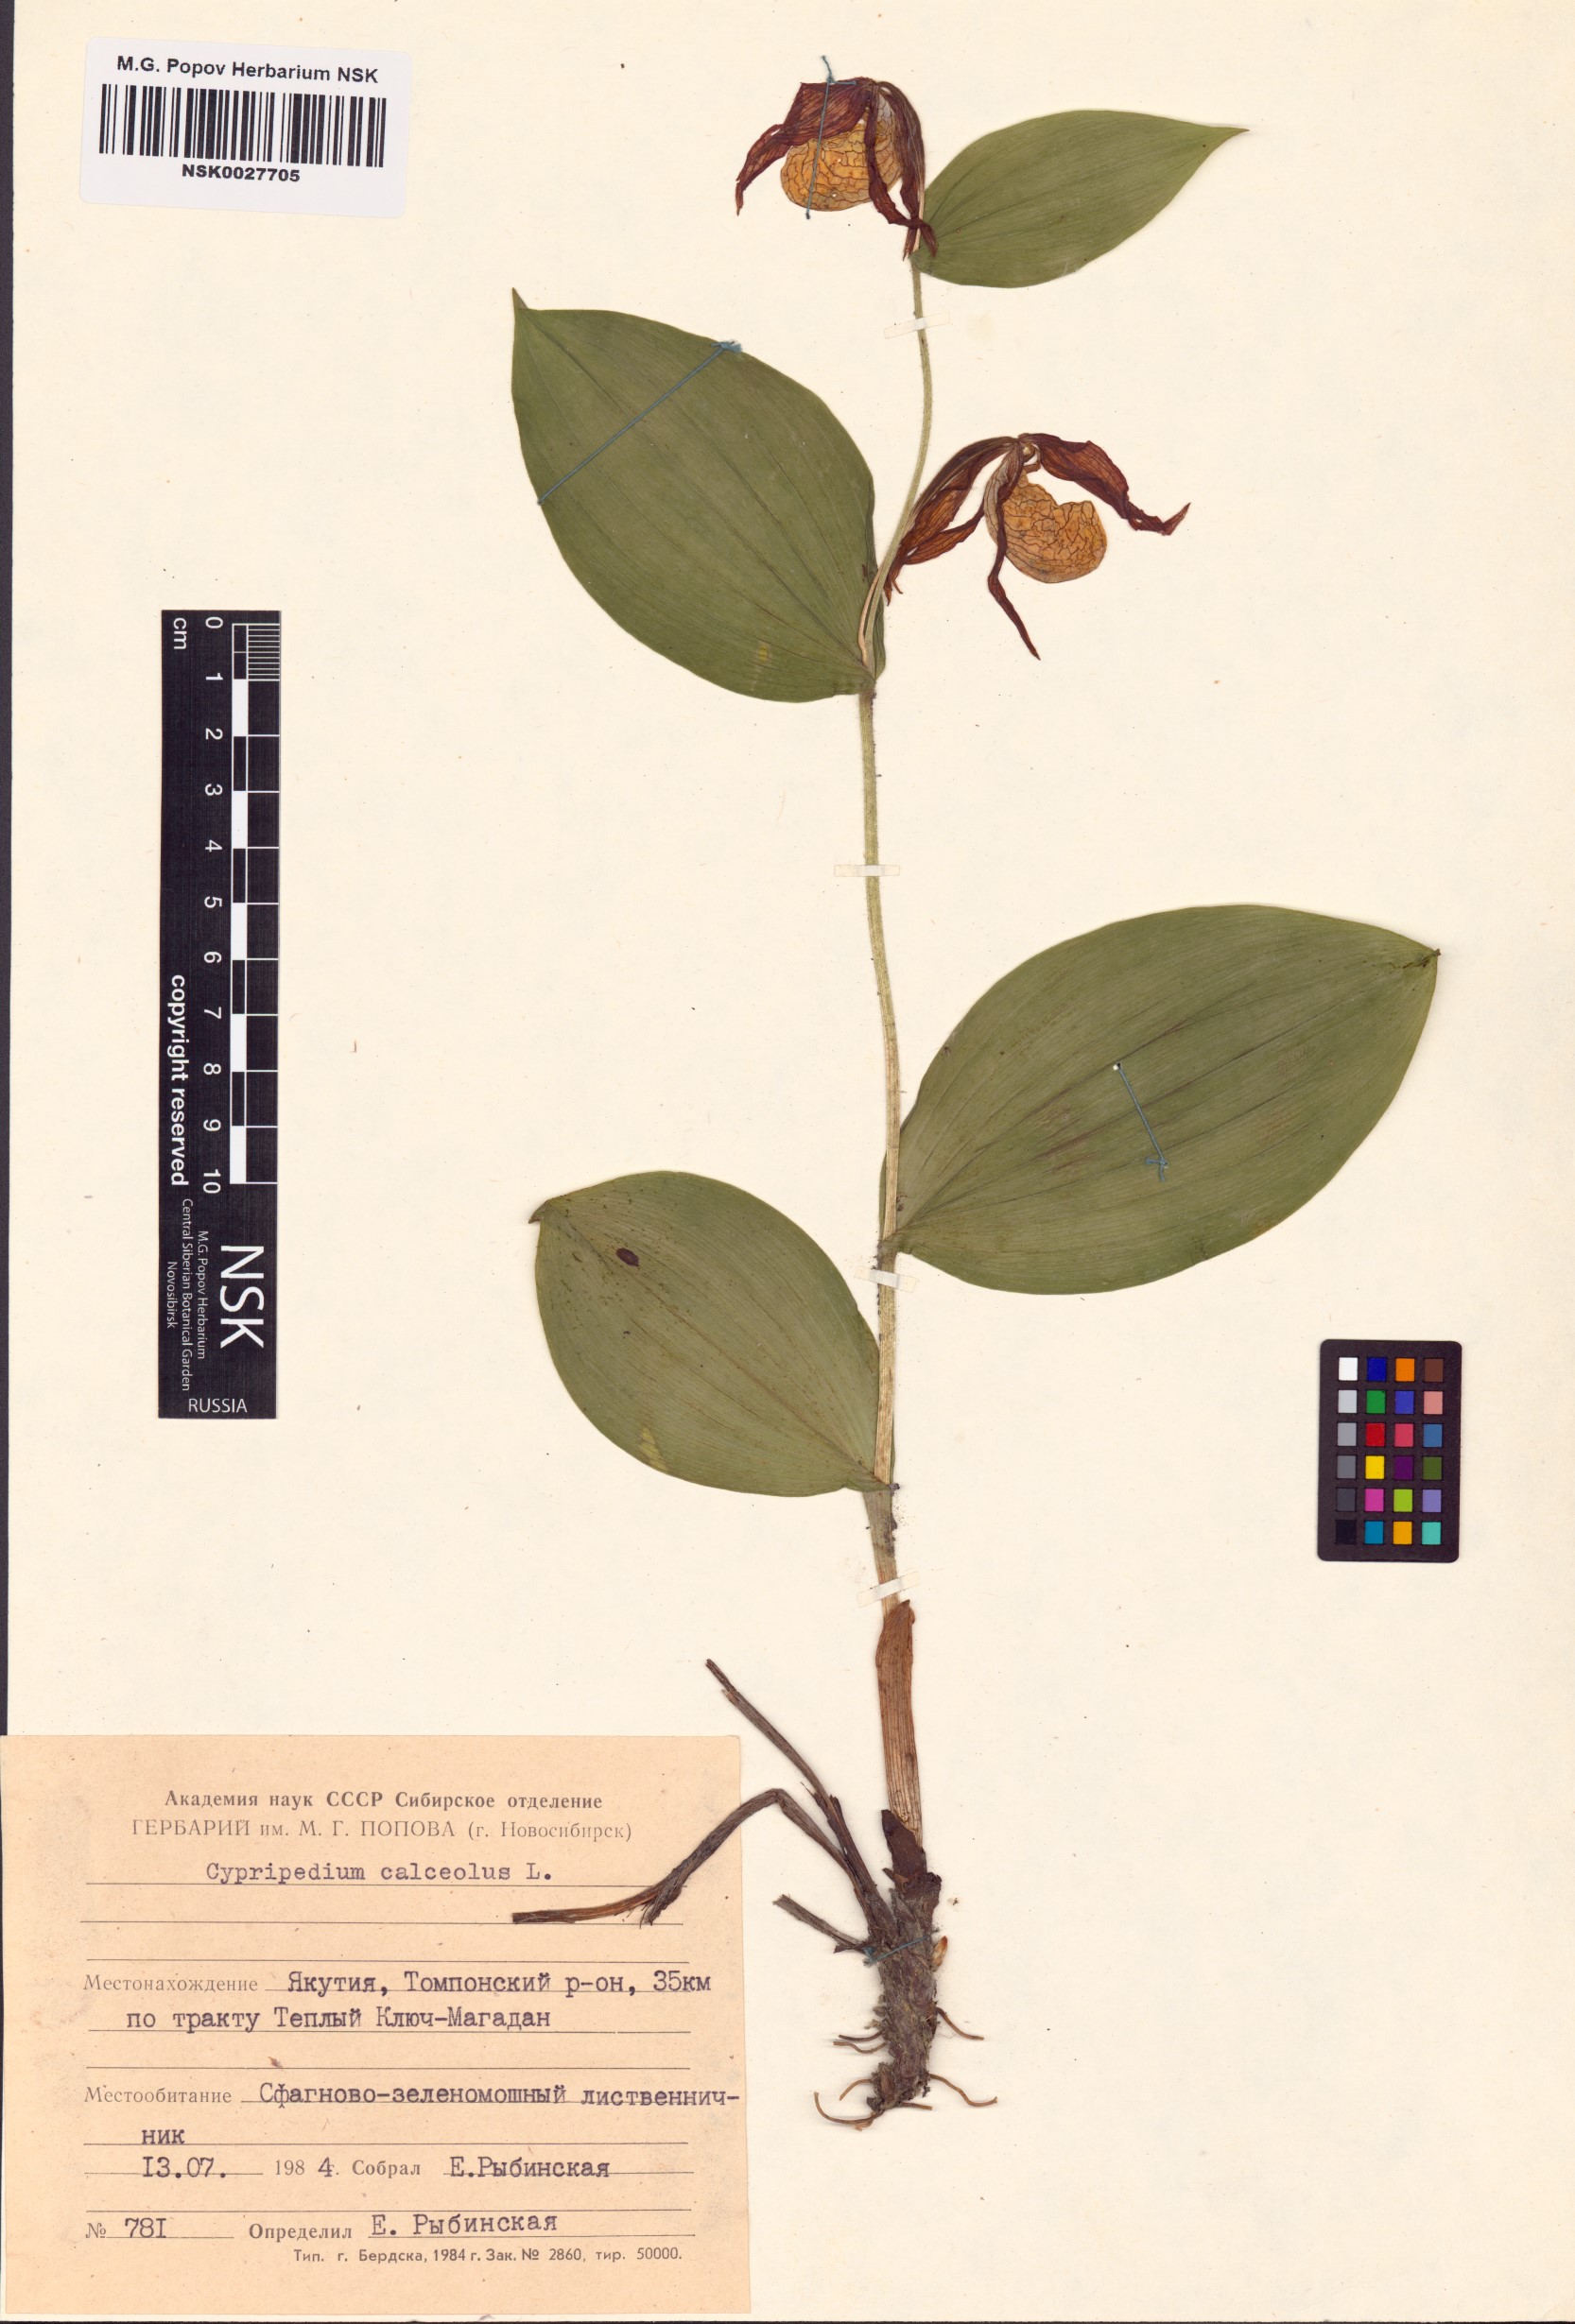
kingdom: Plantae
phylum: Tracheophyta
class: Liliopsida
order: Asparagales
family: Orchidaceae
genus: Cypripedium
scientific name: Cypripedium calceolus
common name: Lady's-slipper
